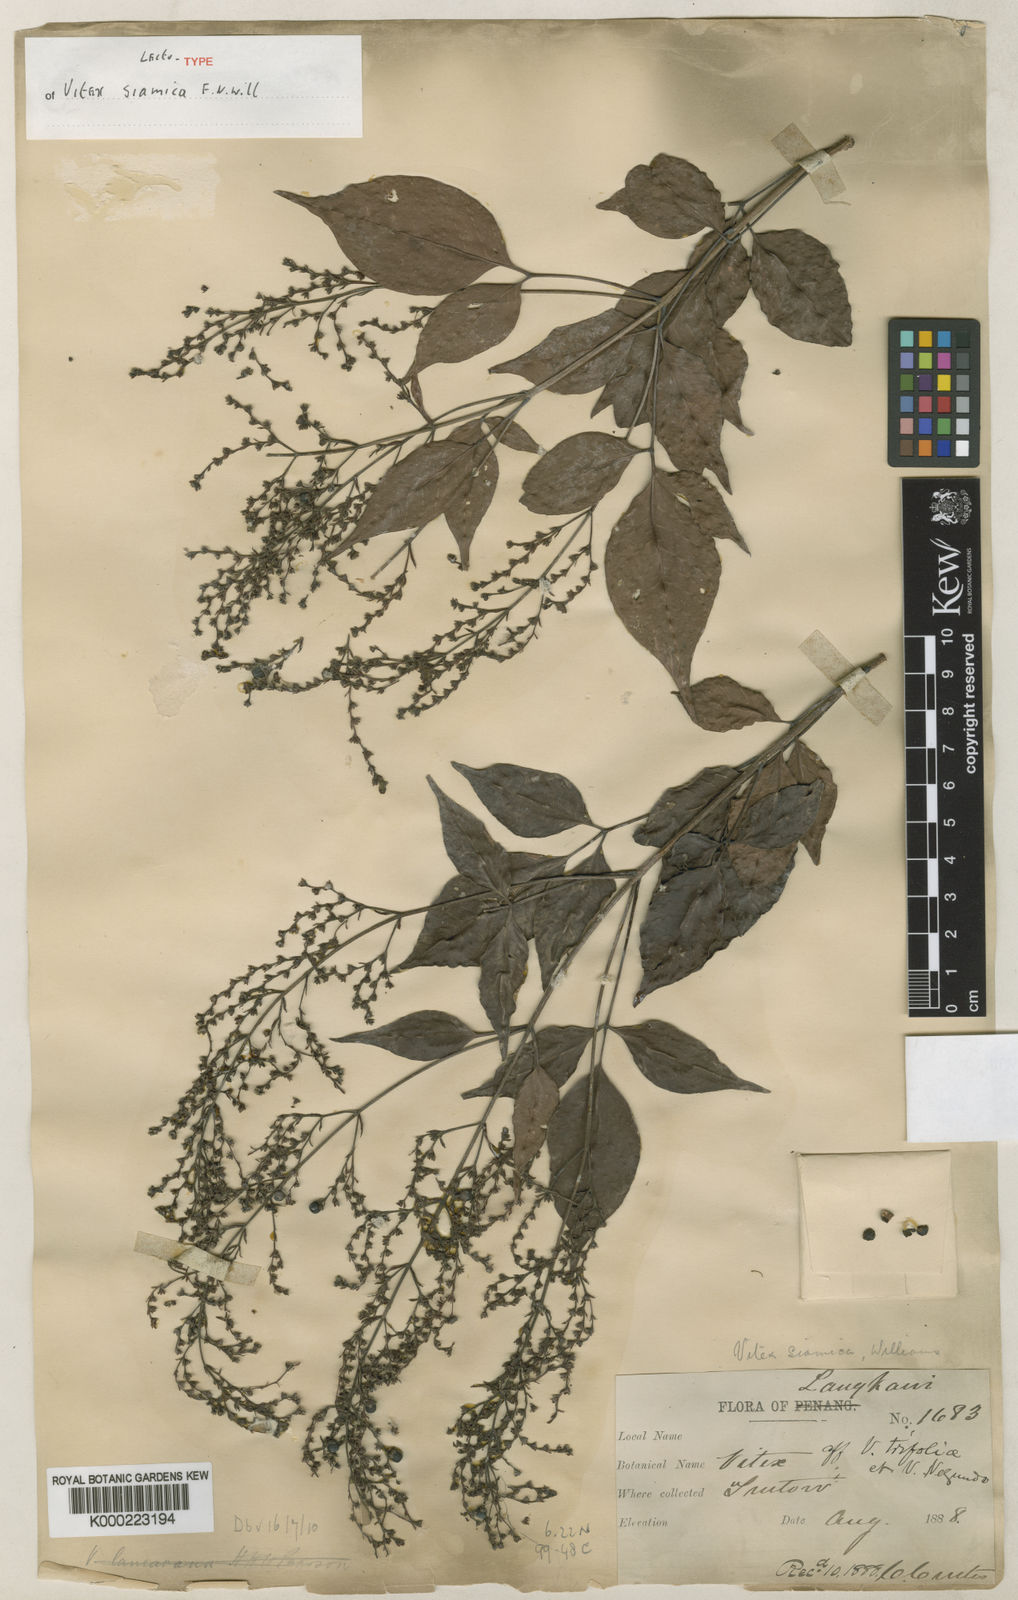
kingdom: Plantae
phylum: Tracheophyta
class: Magnoliopsida
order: Lamiales
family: Lamiaceae
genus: Vitex
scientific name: Vitex siamica
